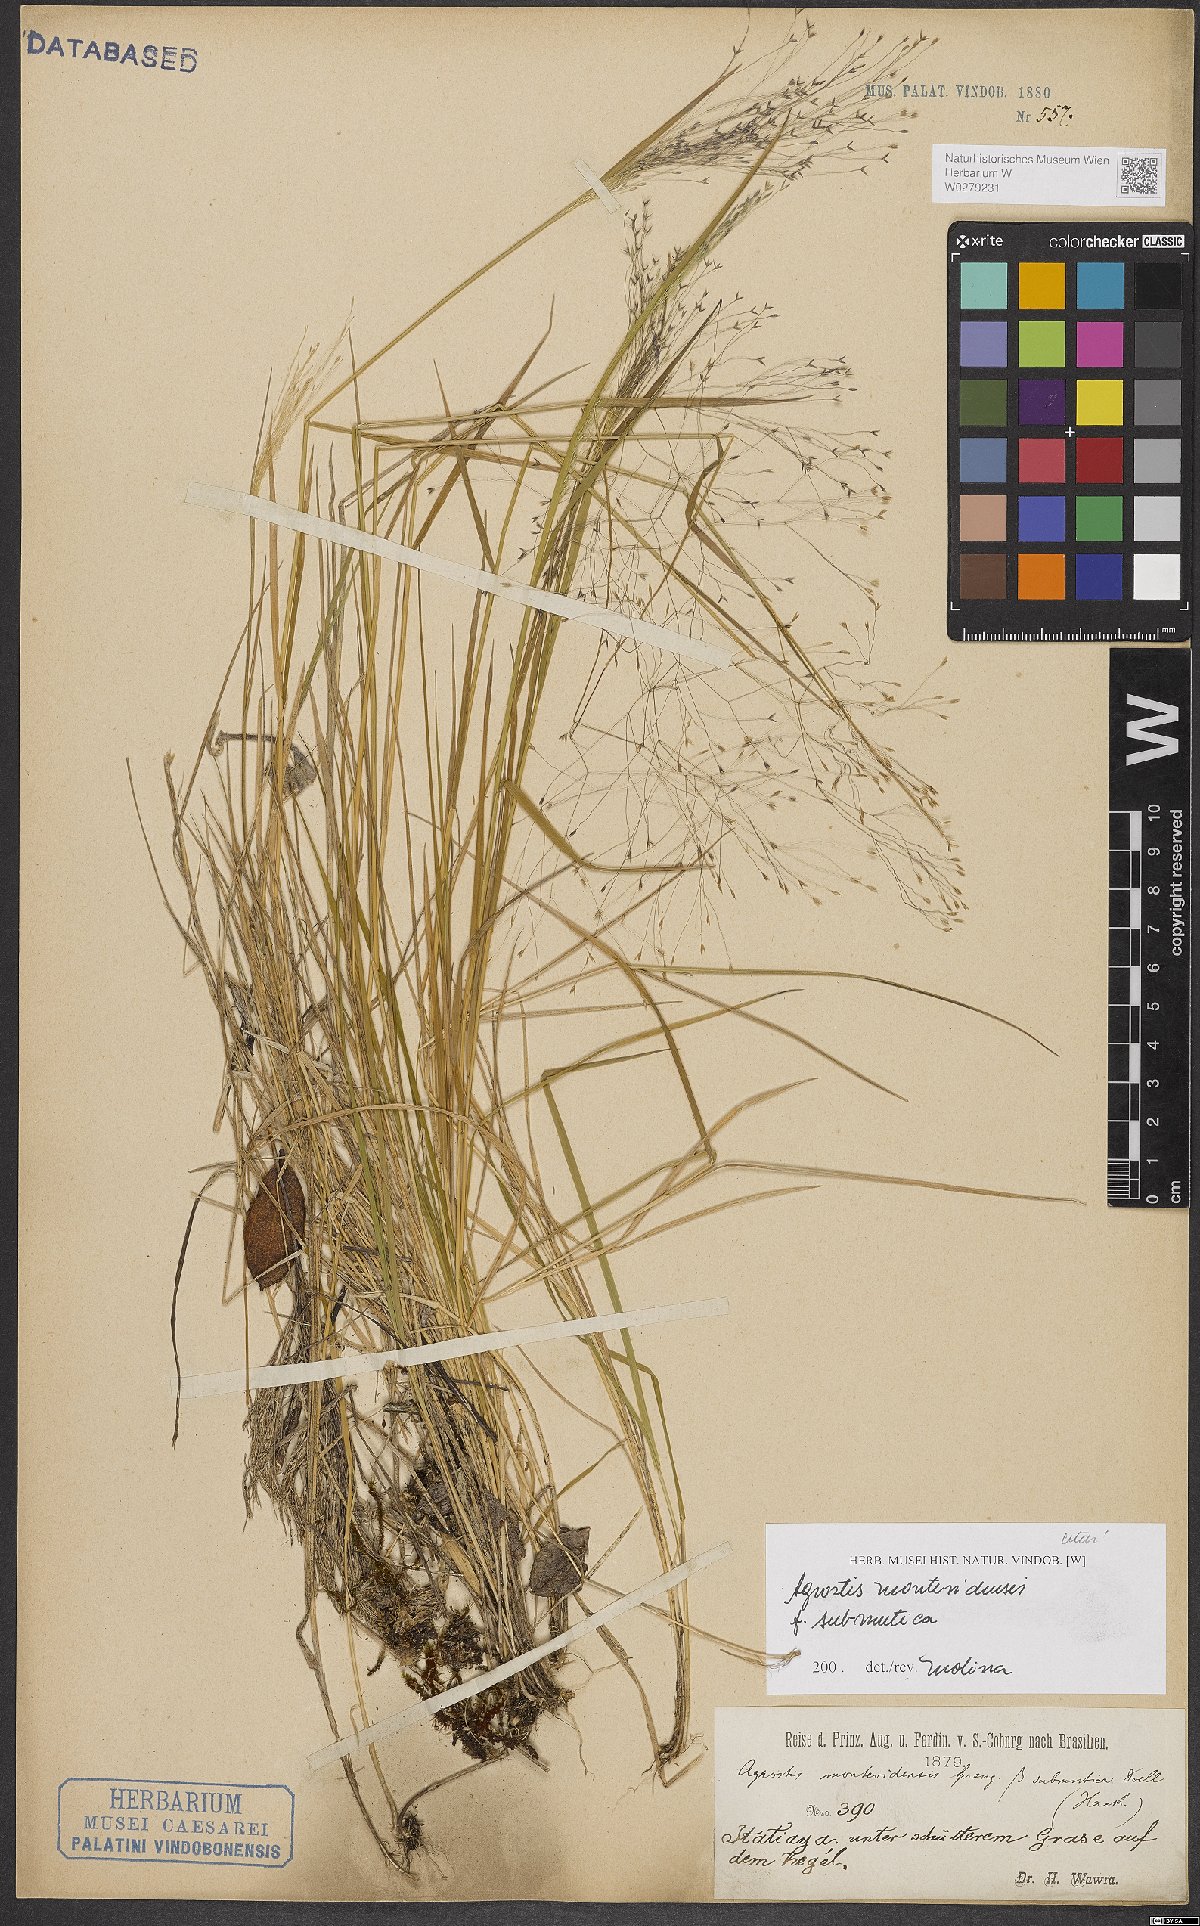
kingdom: Plantae
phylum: Tracheophyta
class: Liliopsida
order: Poales
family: Poaceae
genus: Agrostis
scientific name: Agrostis montevidensis
